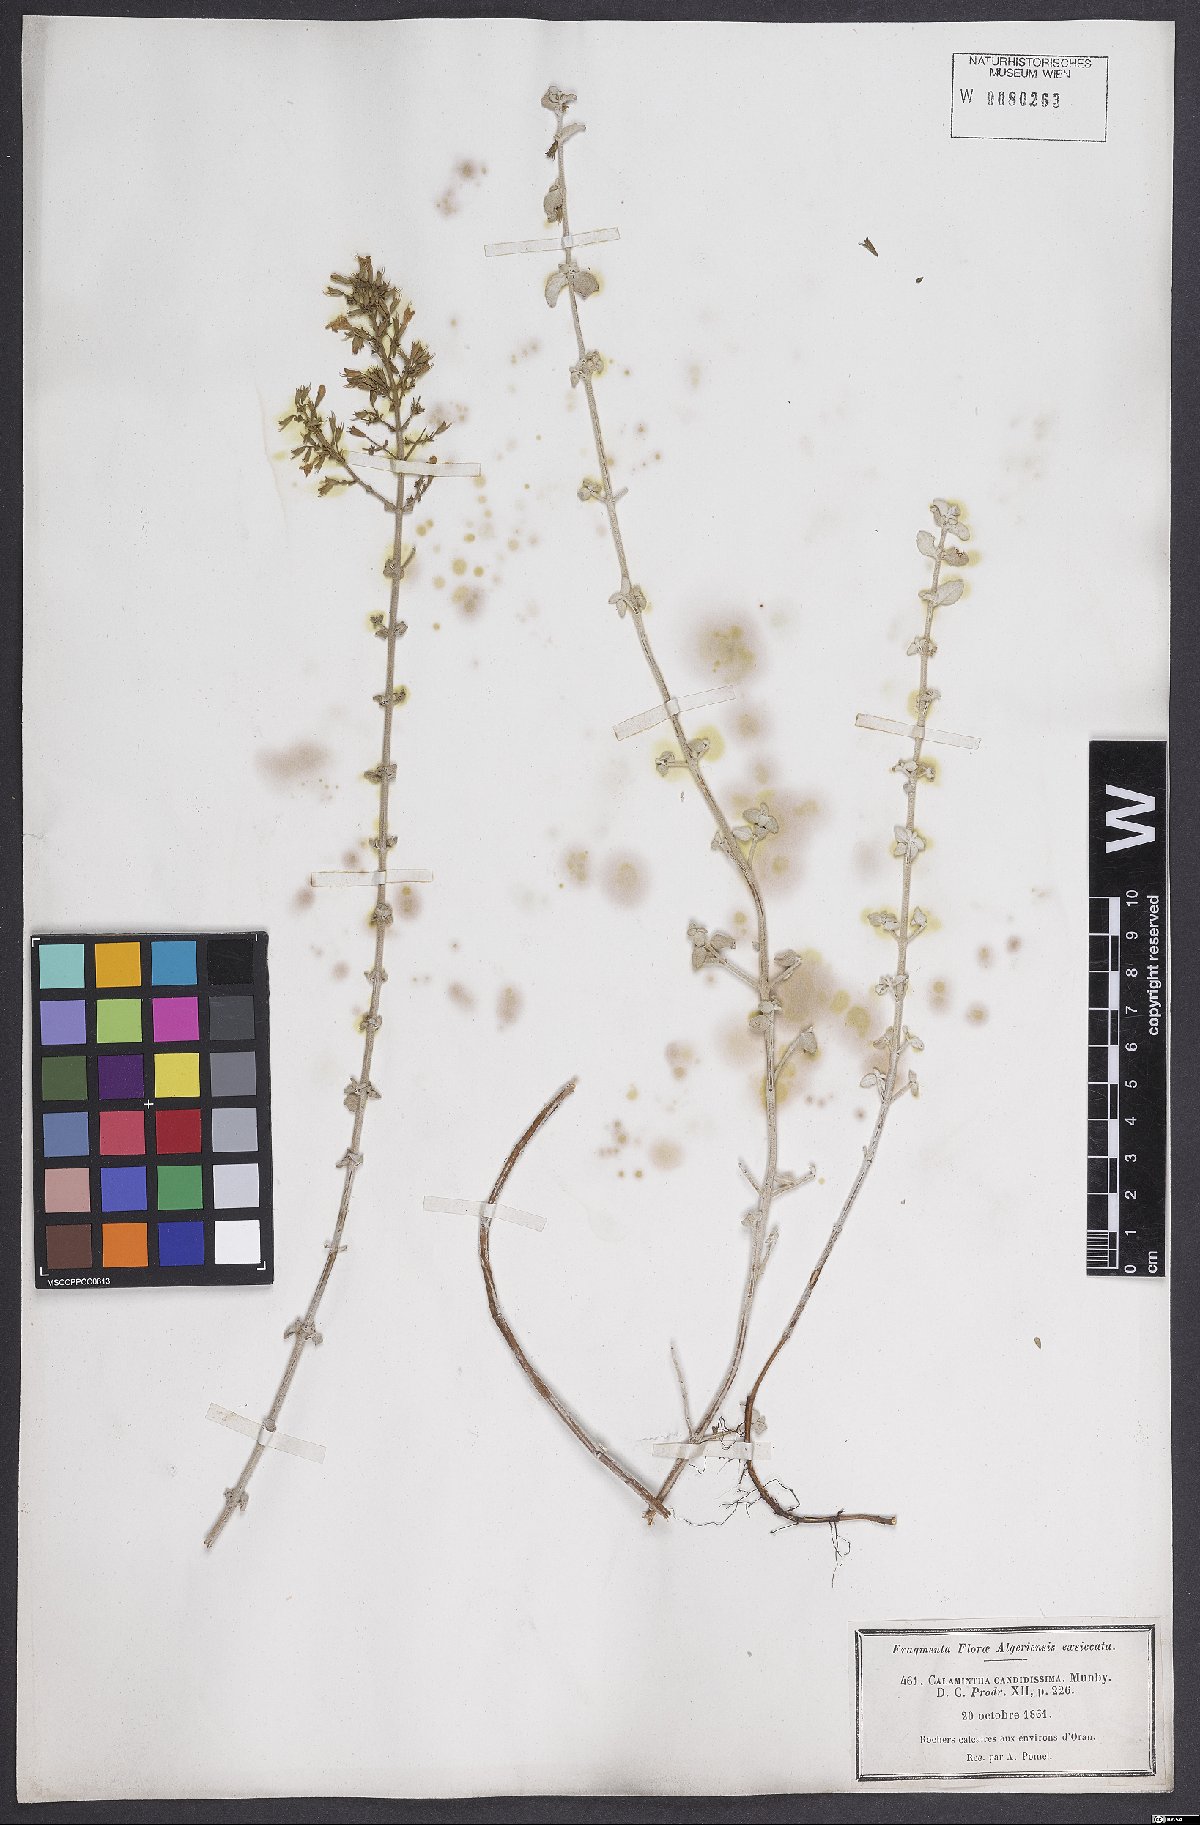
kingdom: Plantae
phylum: Tracheophyta
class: Magnoliopsida
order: Lamiales
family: Lamiaceae
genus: Calamintha
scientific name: Calamintha
